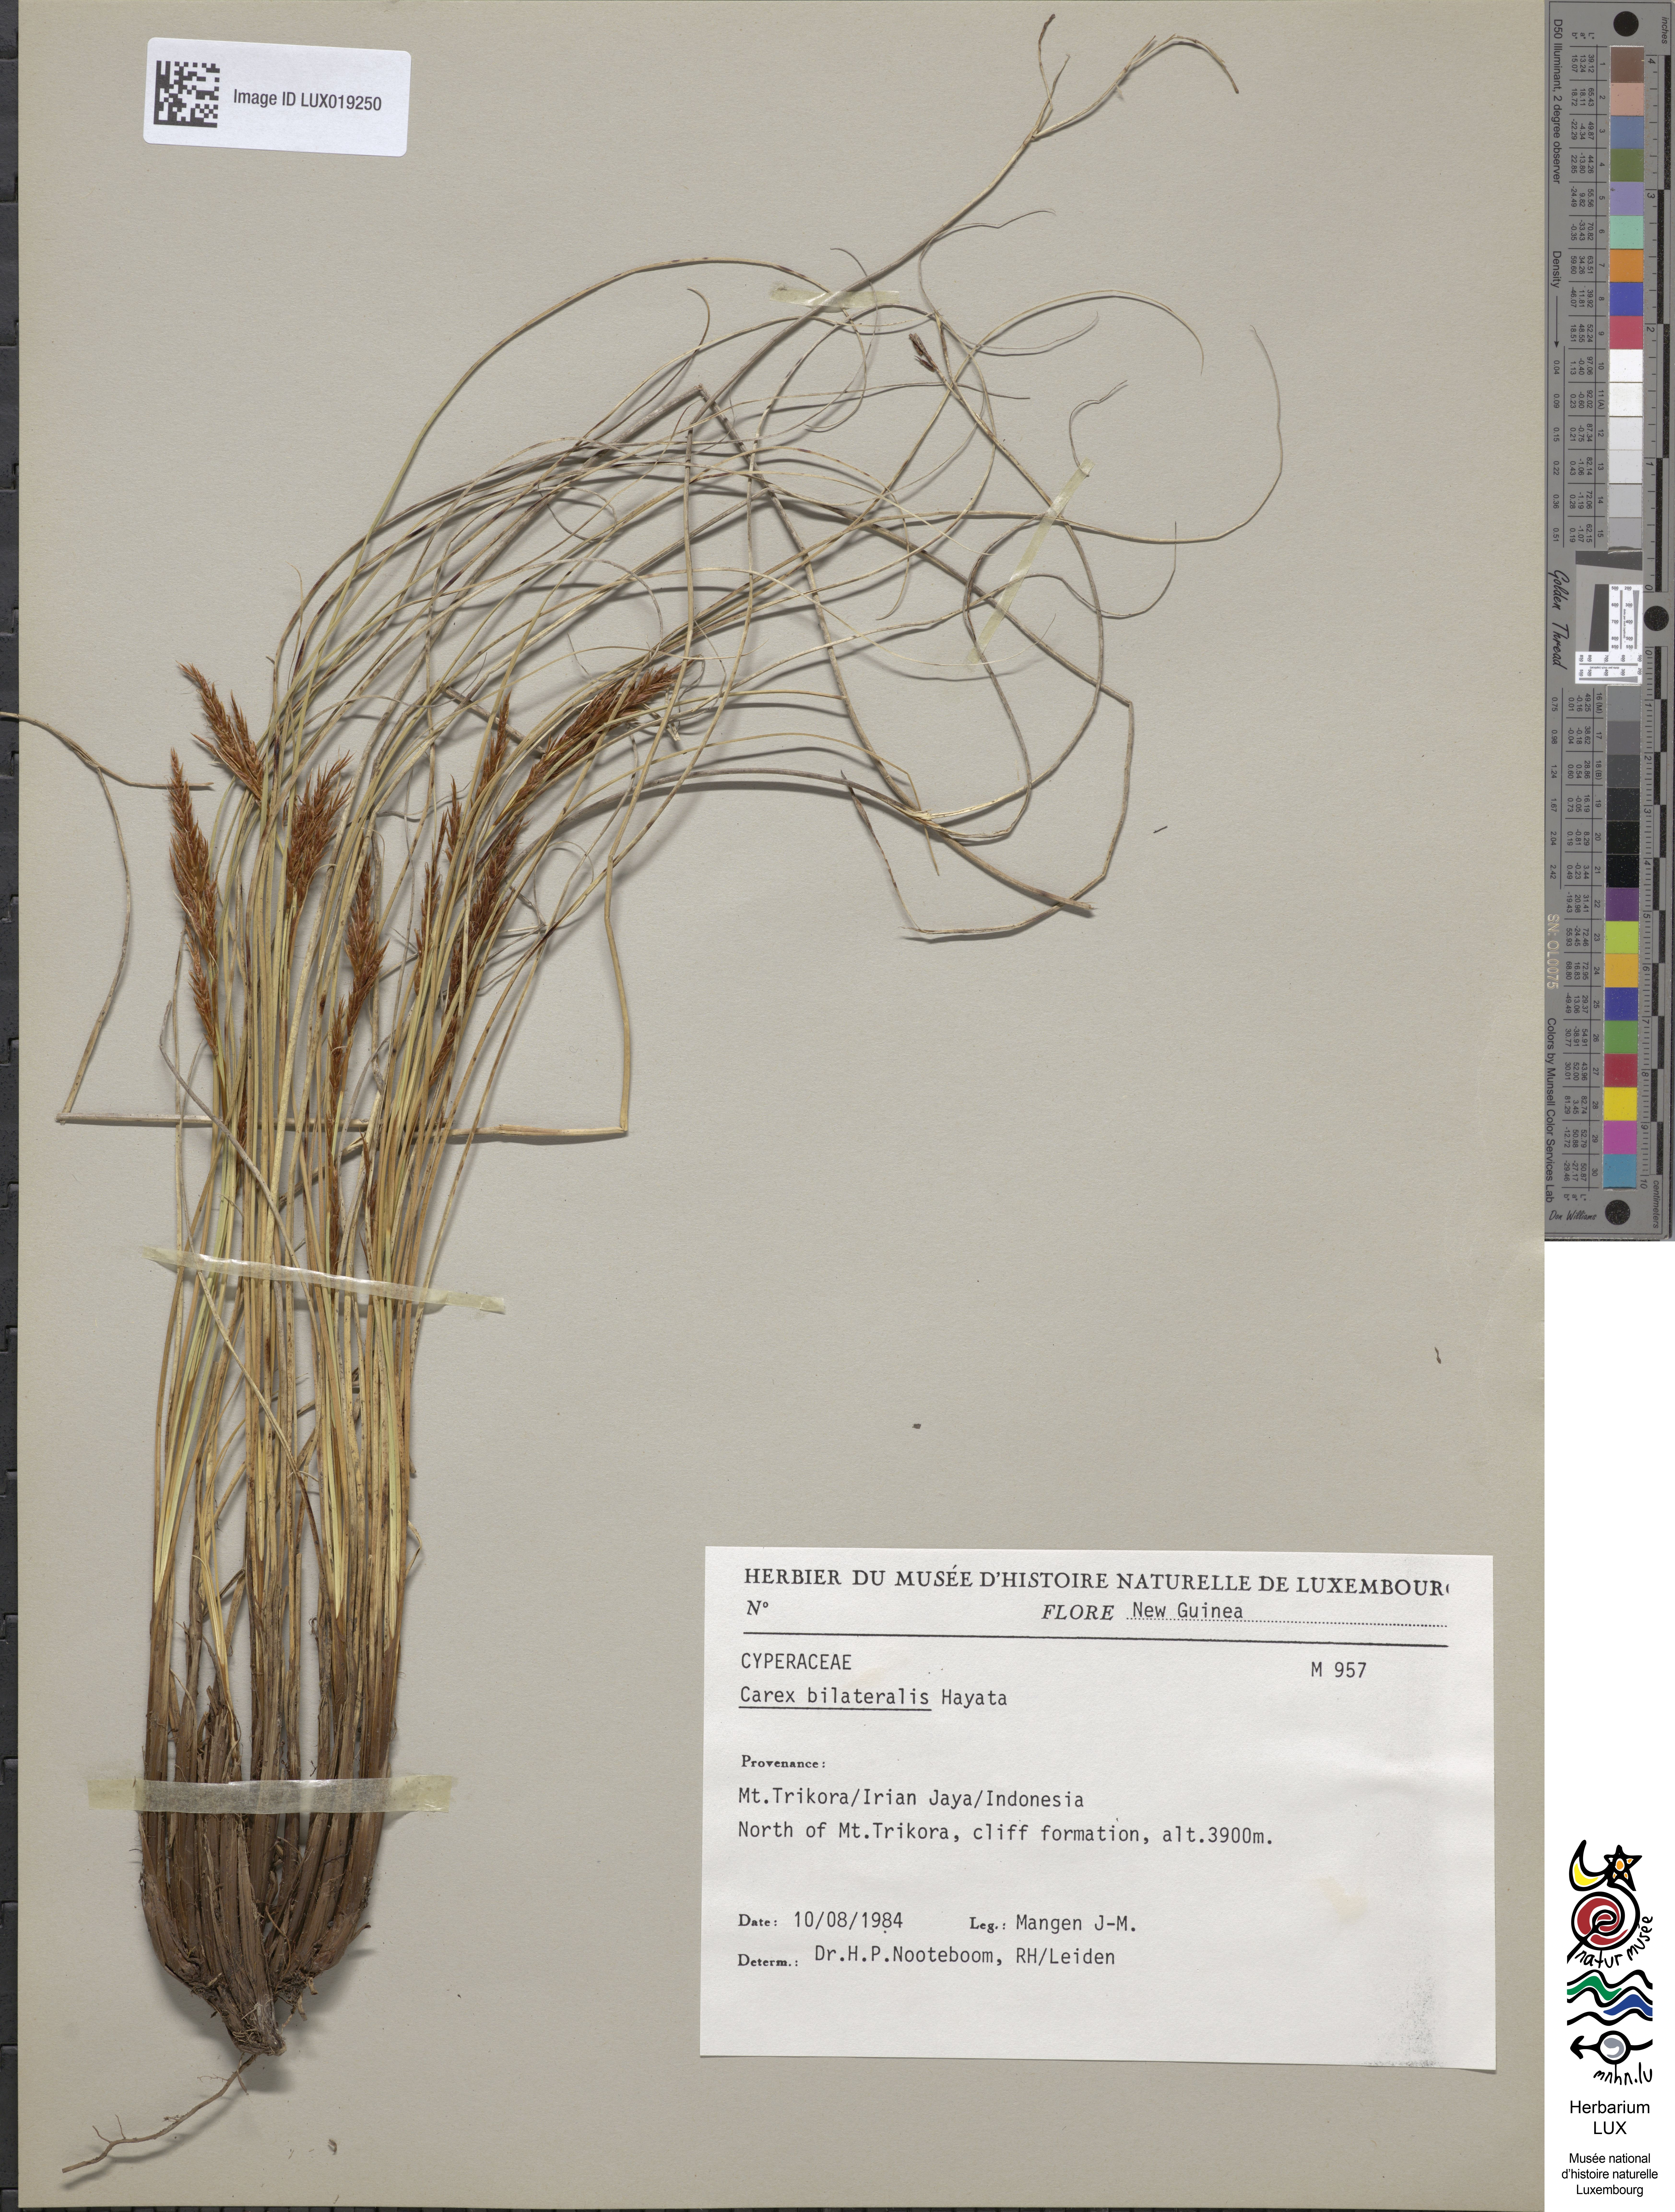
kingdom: Plantae
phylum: Tracheophyta
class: Liliopsida
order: Poales
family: Cyperaceae
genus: Carex
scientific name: Carex bilateralis
